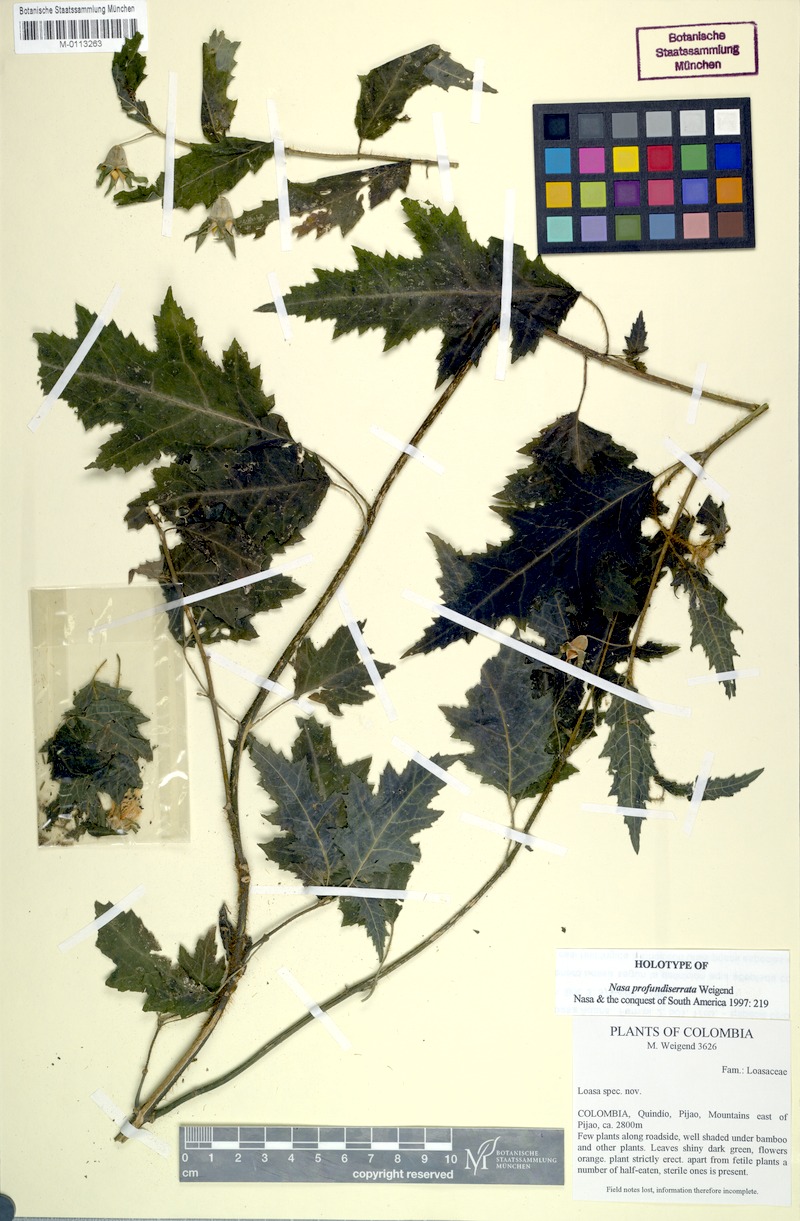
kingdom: Plantae
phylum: Tracheophyta
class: Magnoliopsida
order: Cornales
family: Loasaceae
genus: Nasa
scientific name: Nasa profundiserrata
